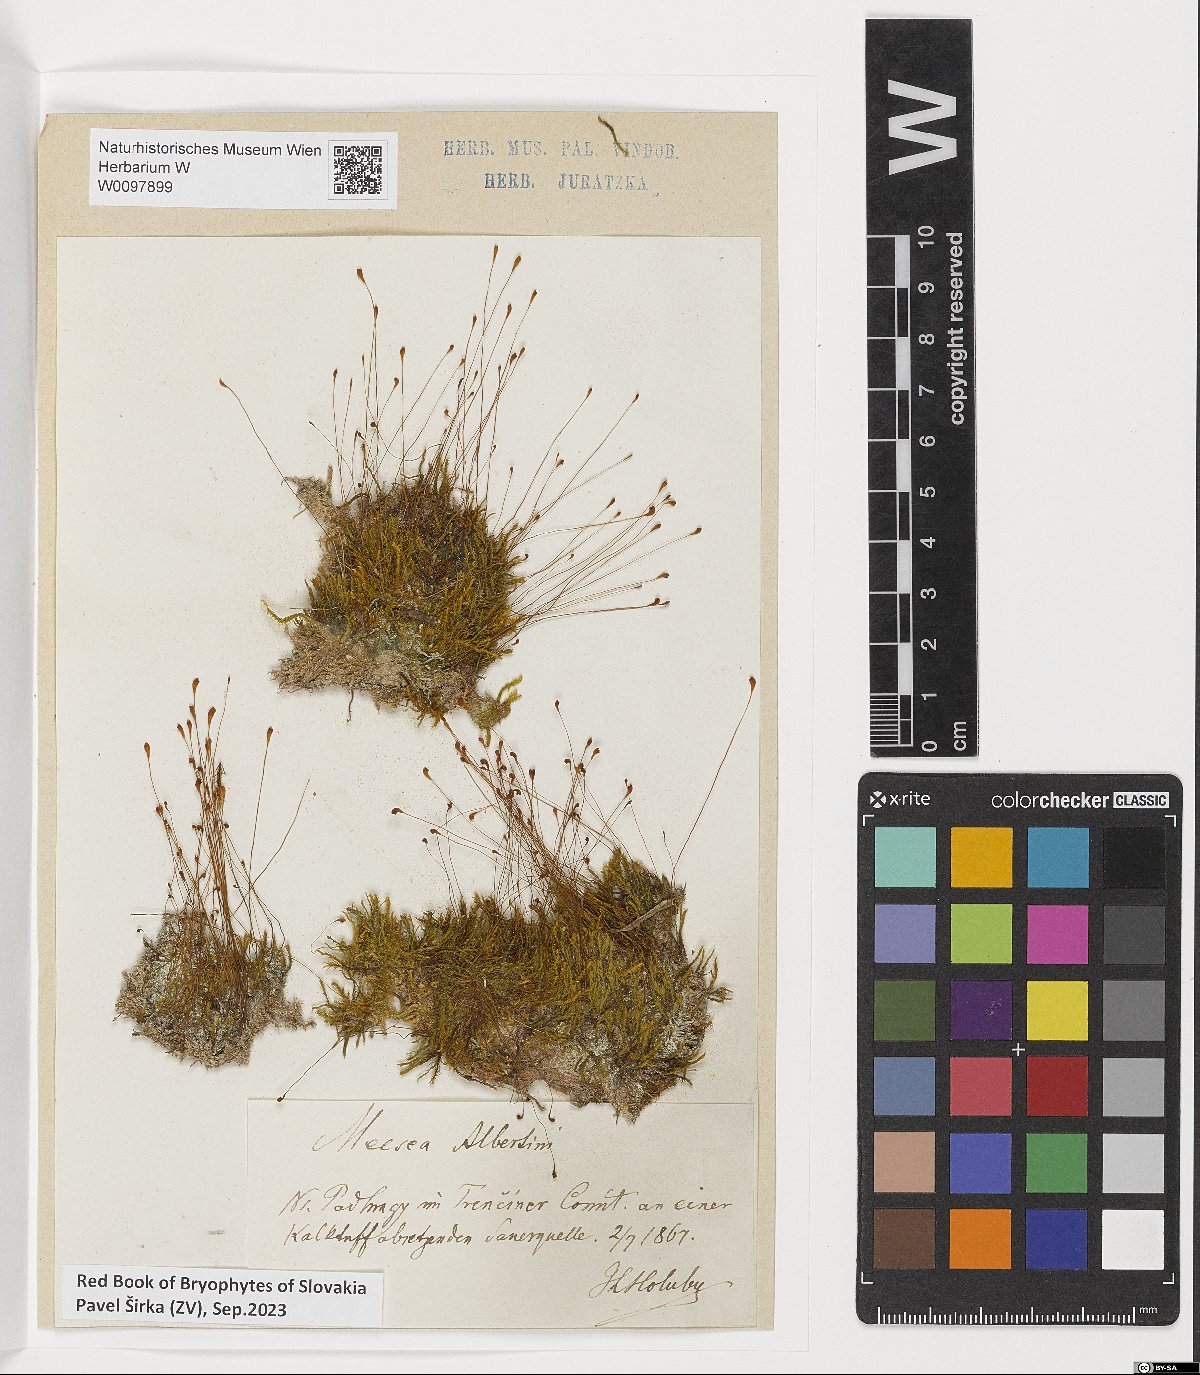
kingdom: Plantae
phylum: Bryophyta
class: Bryopsida
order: Splachnales
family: Meesiaceae
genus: Meesia
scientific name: Meesia hexasticha
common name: Triangular-leaved thread moss
